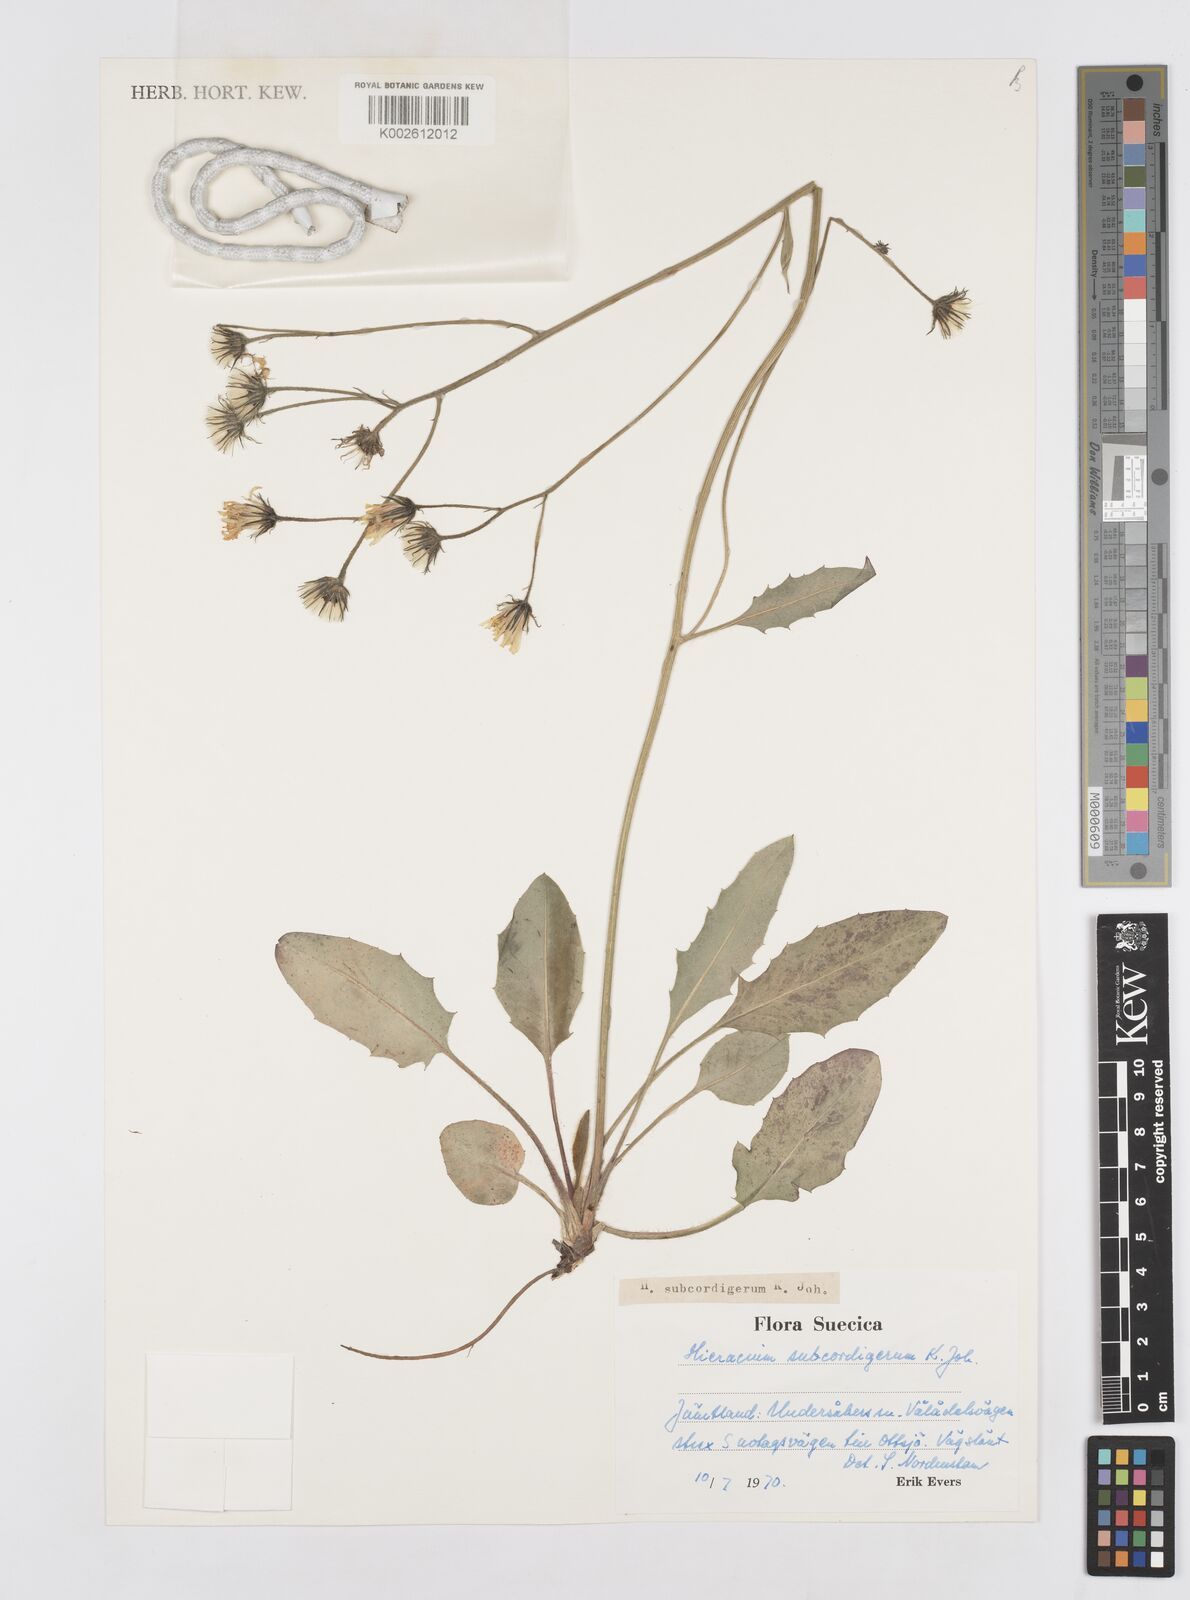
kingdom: Plantae
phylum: Tracheophyta
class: Magnoliopsida
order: Asterales
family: Asteraceae
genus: Hieracium
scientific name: Hieracium subcordigerum
